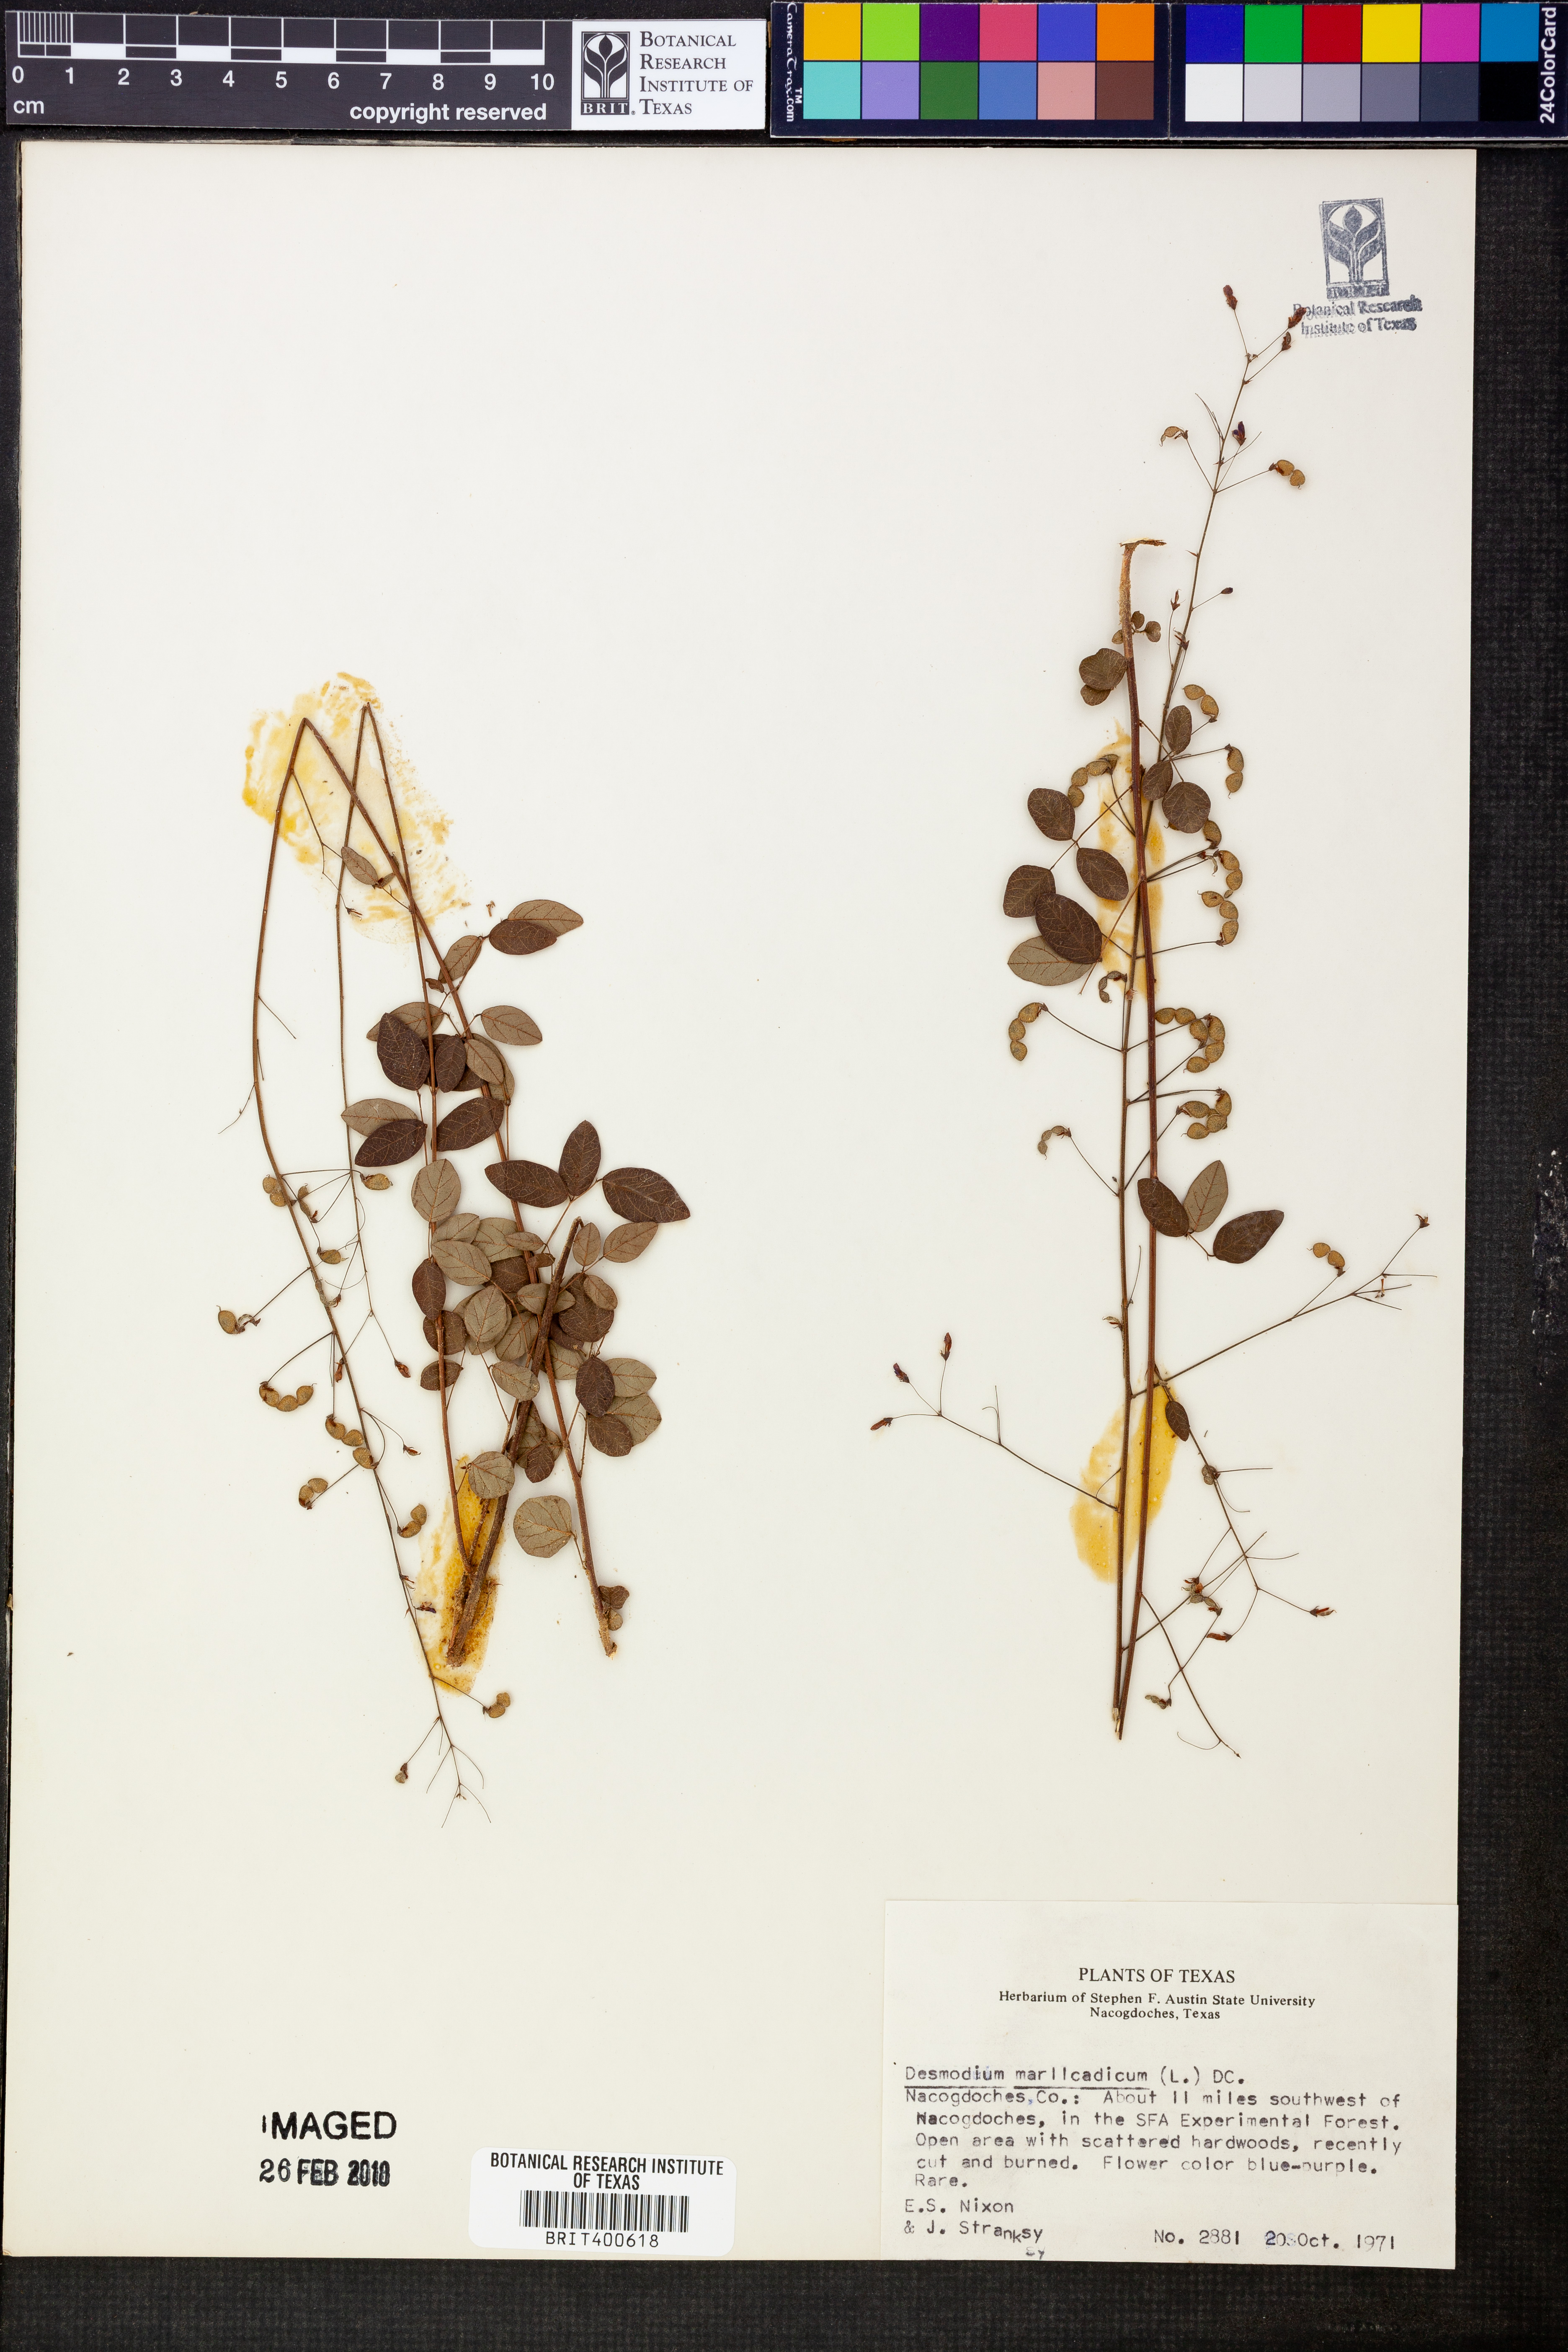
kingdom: Plantae
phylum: Tracheophyta
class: Magnoliopsida
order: Fabales
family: Fabaceae
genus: Desmodium
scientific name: Desmodium marilandicum
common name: Maryland tick-trefoil
